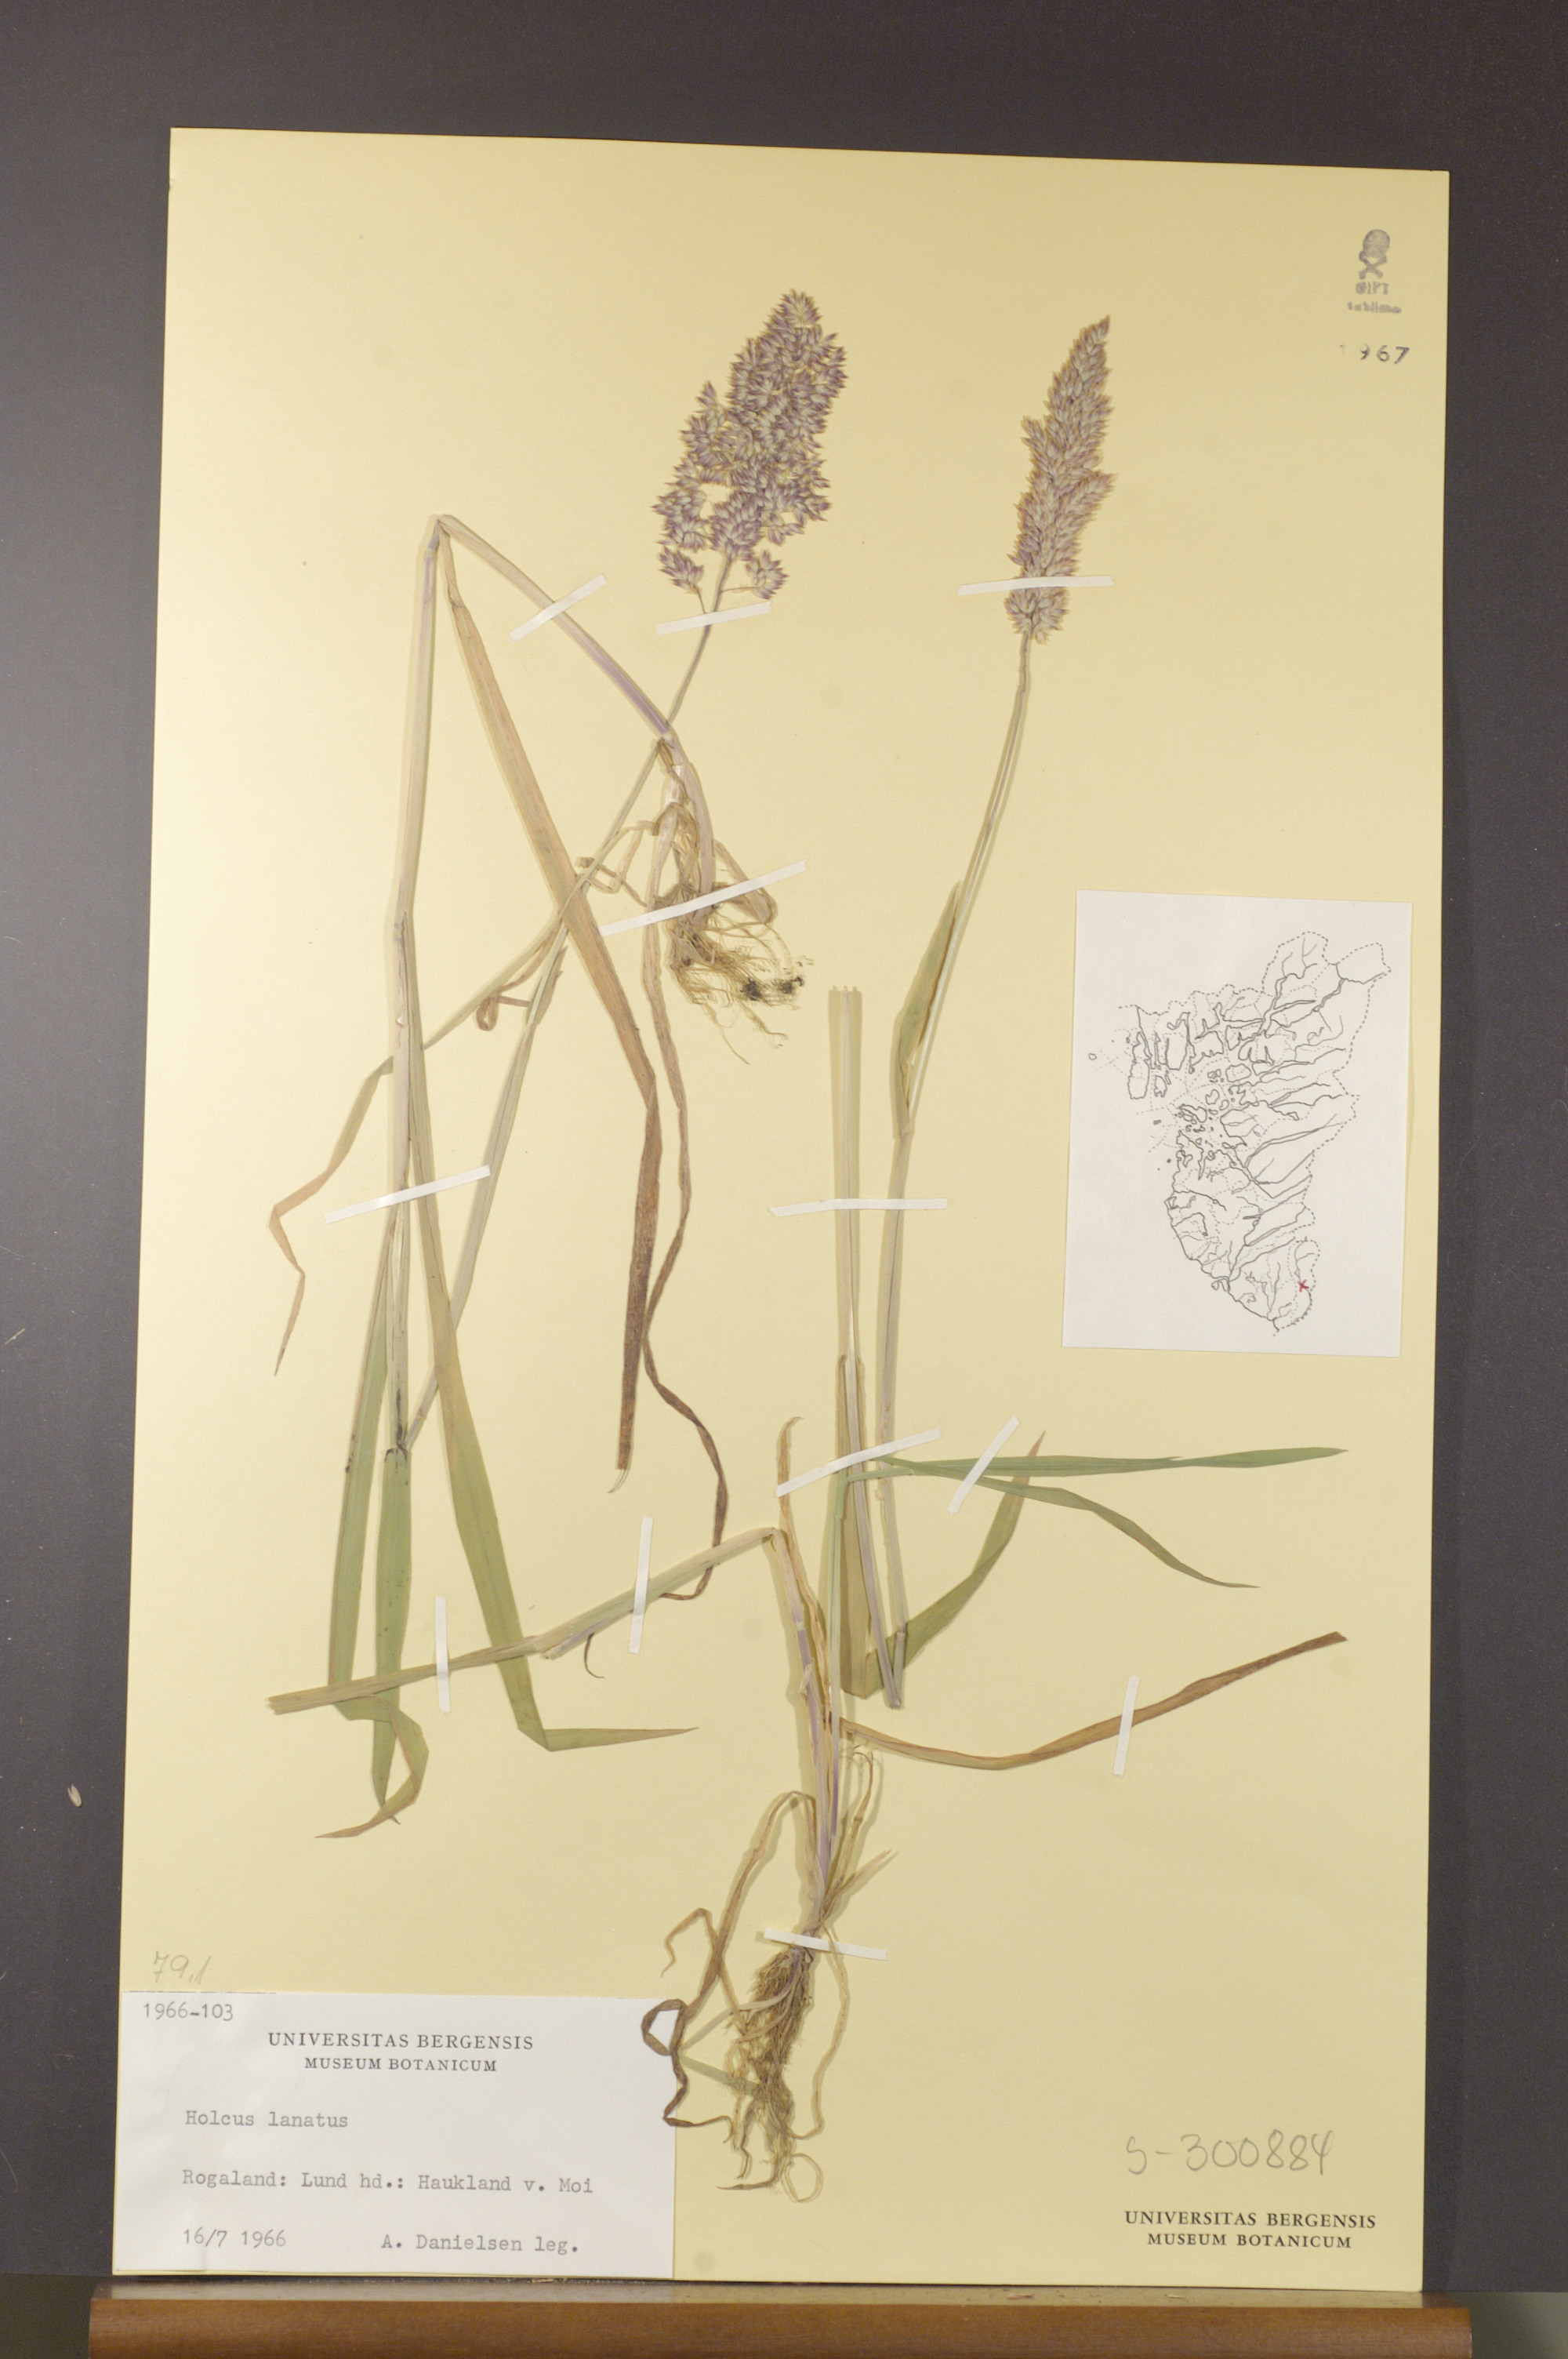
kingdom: Plantae
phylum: Tracheophyta
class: Liliopsida
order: Poales
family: Poaceae
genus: Holcus
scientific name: Holcus lanatus
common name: Yorkshire-fog
